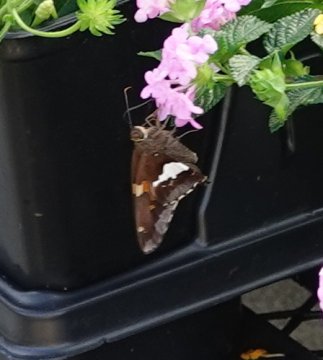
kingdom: Animalia
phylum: Arthropoda
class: Insecta
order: Lepidoptera
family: Hesperiidae
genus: Epargyreus
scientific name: Epargyreus clarus
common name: Silver-spotted Skipper
